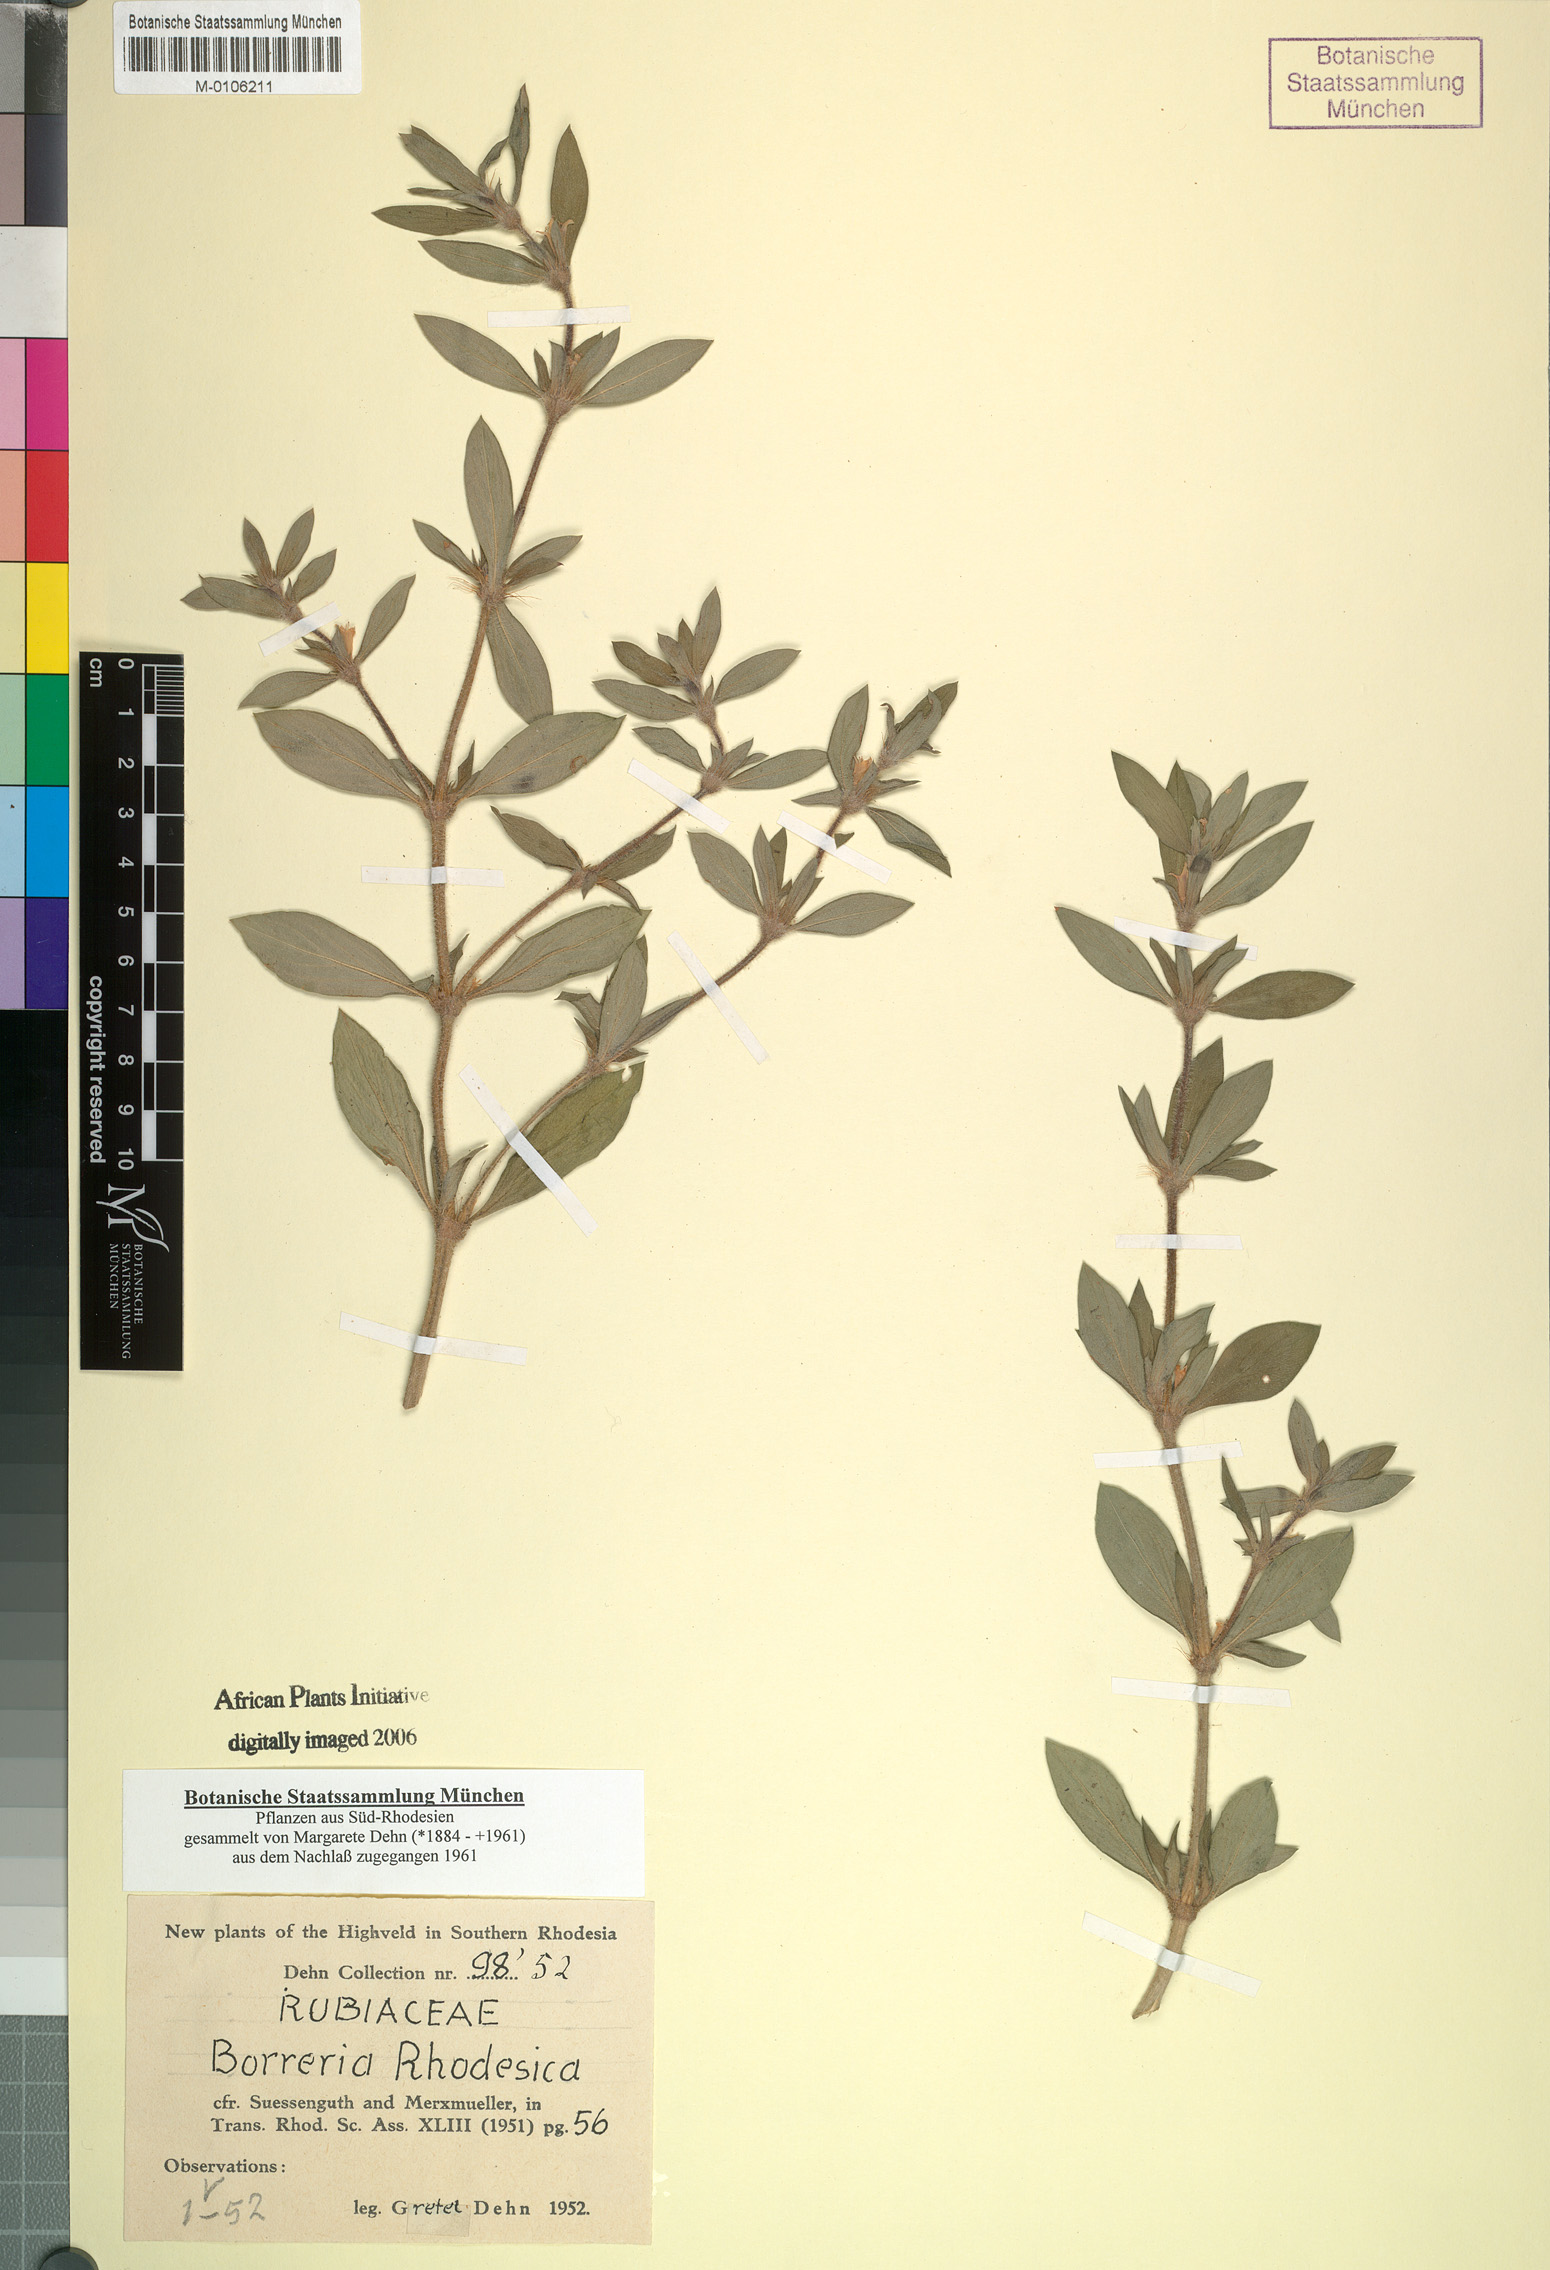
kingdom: Plantae
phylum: Tracheophyta
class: Magnoliopsida
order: Gentianales
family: Rubiaceae
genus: Spermacoce
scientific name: Spermacoce senensis
